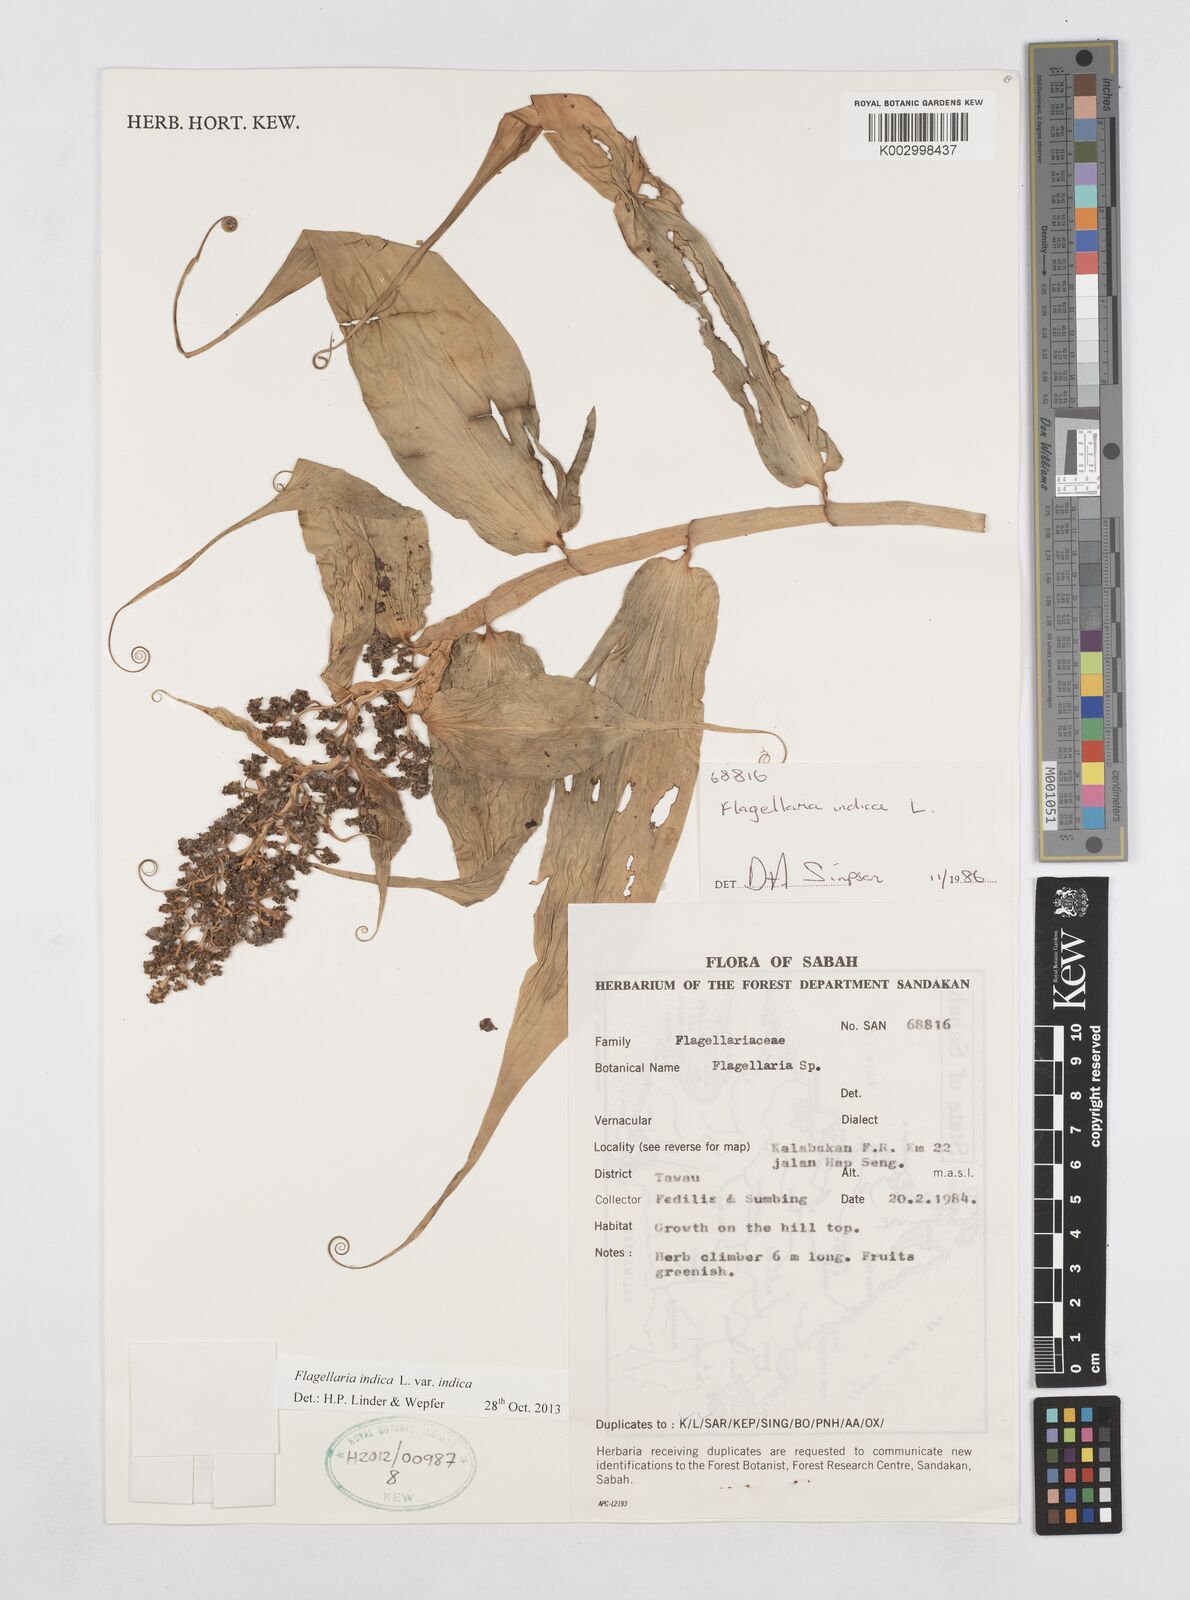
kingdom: Plantae
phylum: Tracheophyta
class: Liliopsida
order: Poales
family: Flagellariaceae
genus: Flagellaria
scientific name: Flagellaria indica
